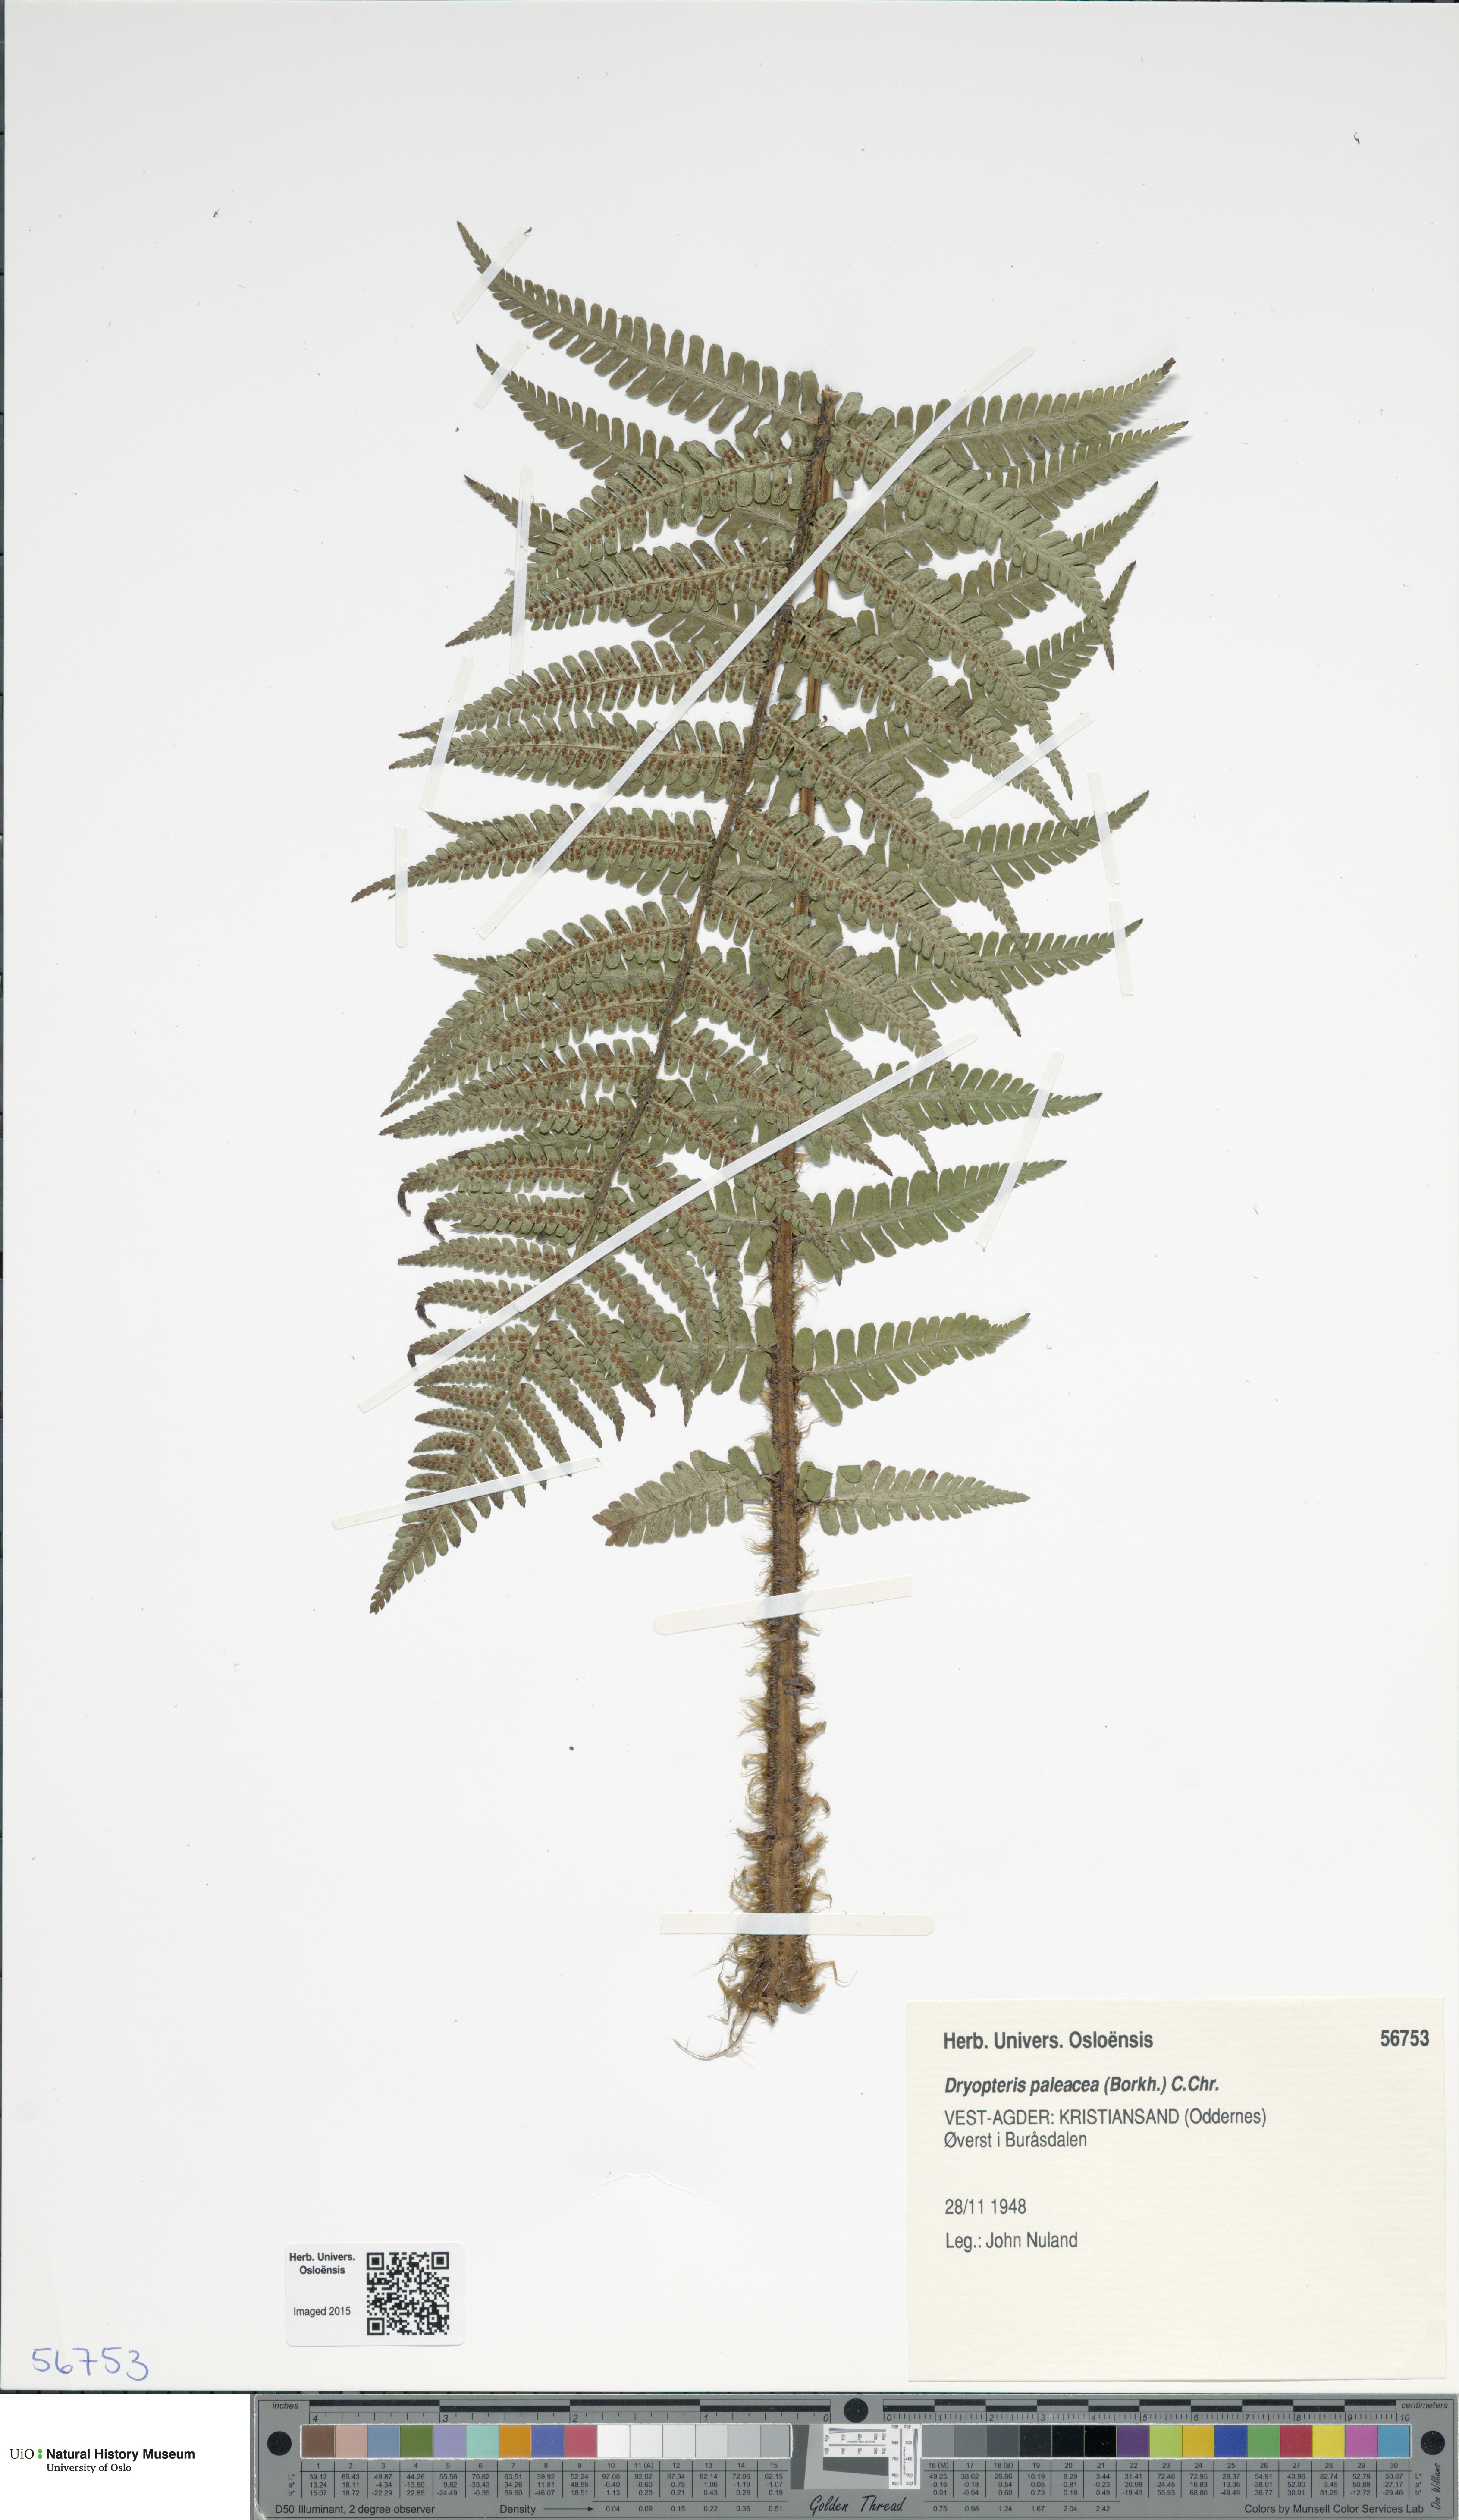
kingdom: Plantae
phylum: Tracheophyta
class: Polypodiopsida
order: Polypodiales
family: Dryopteridaceae
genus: Dryopteris
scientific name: Dryopteris wallichiana
